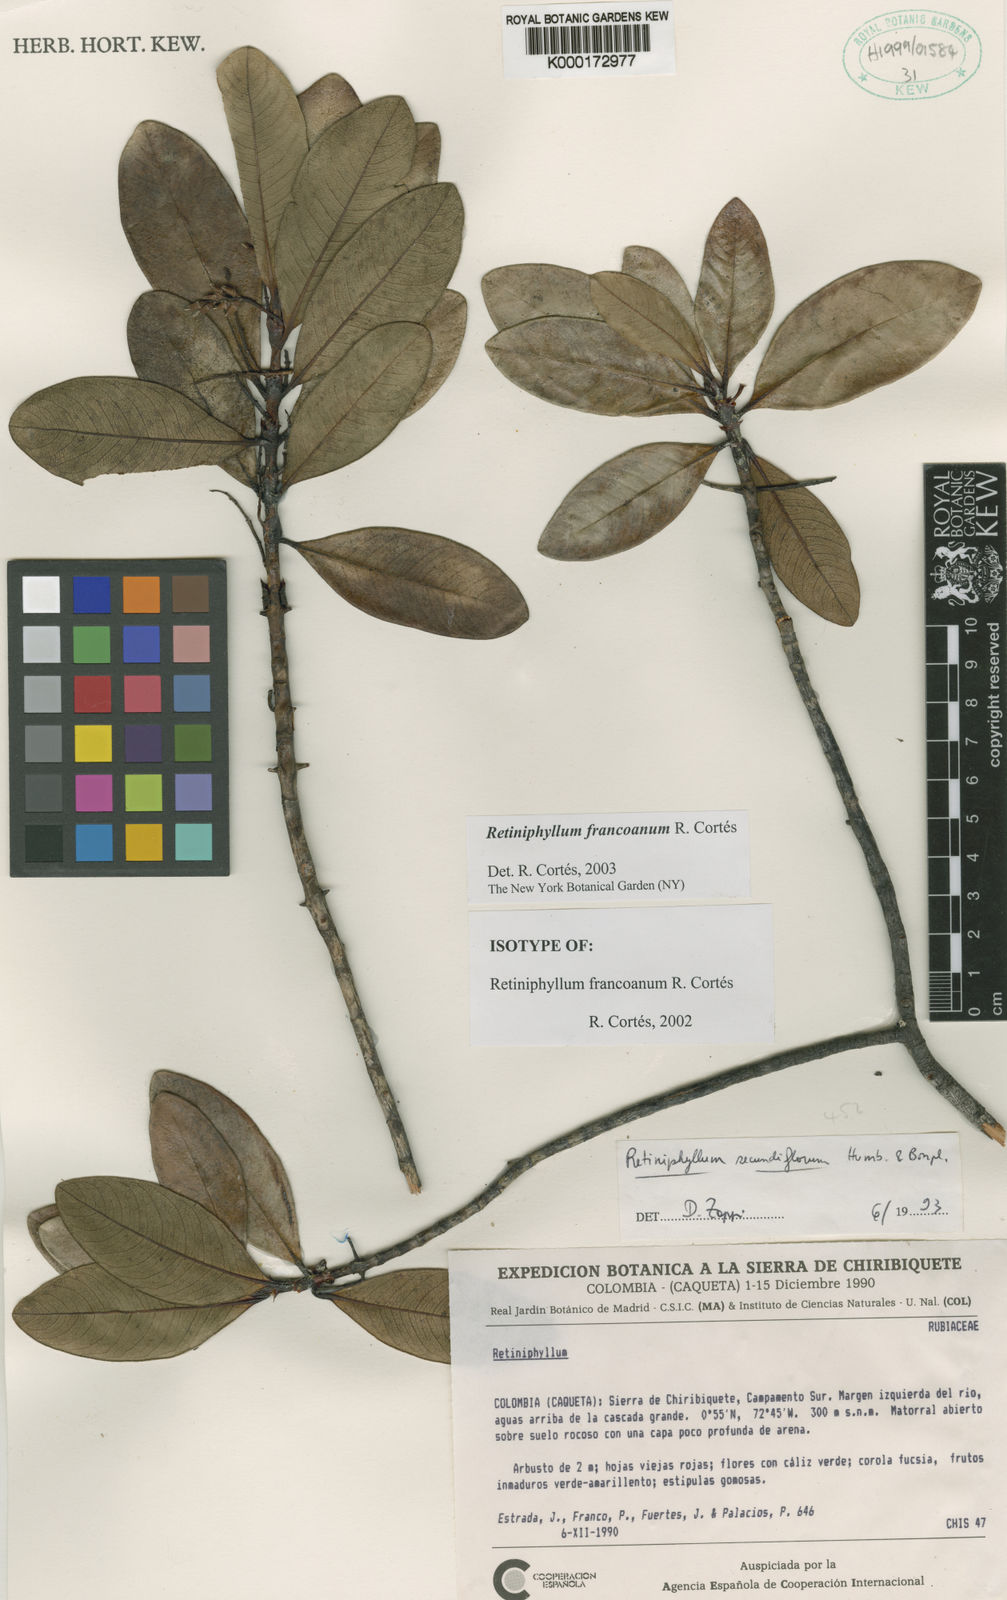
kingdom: Plantae
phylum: Tracheophyta
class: Magnoliopsida
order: Gentianales
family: Rubiaceae
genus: Retiniphyllum
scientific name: Retiniphyllum
